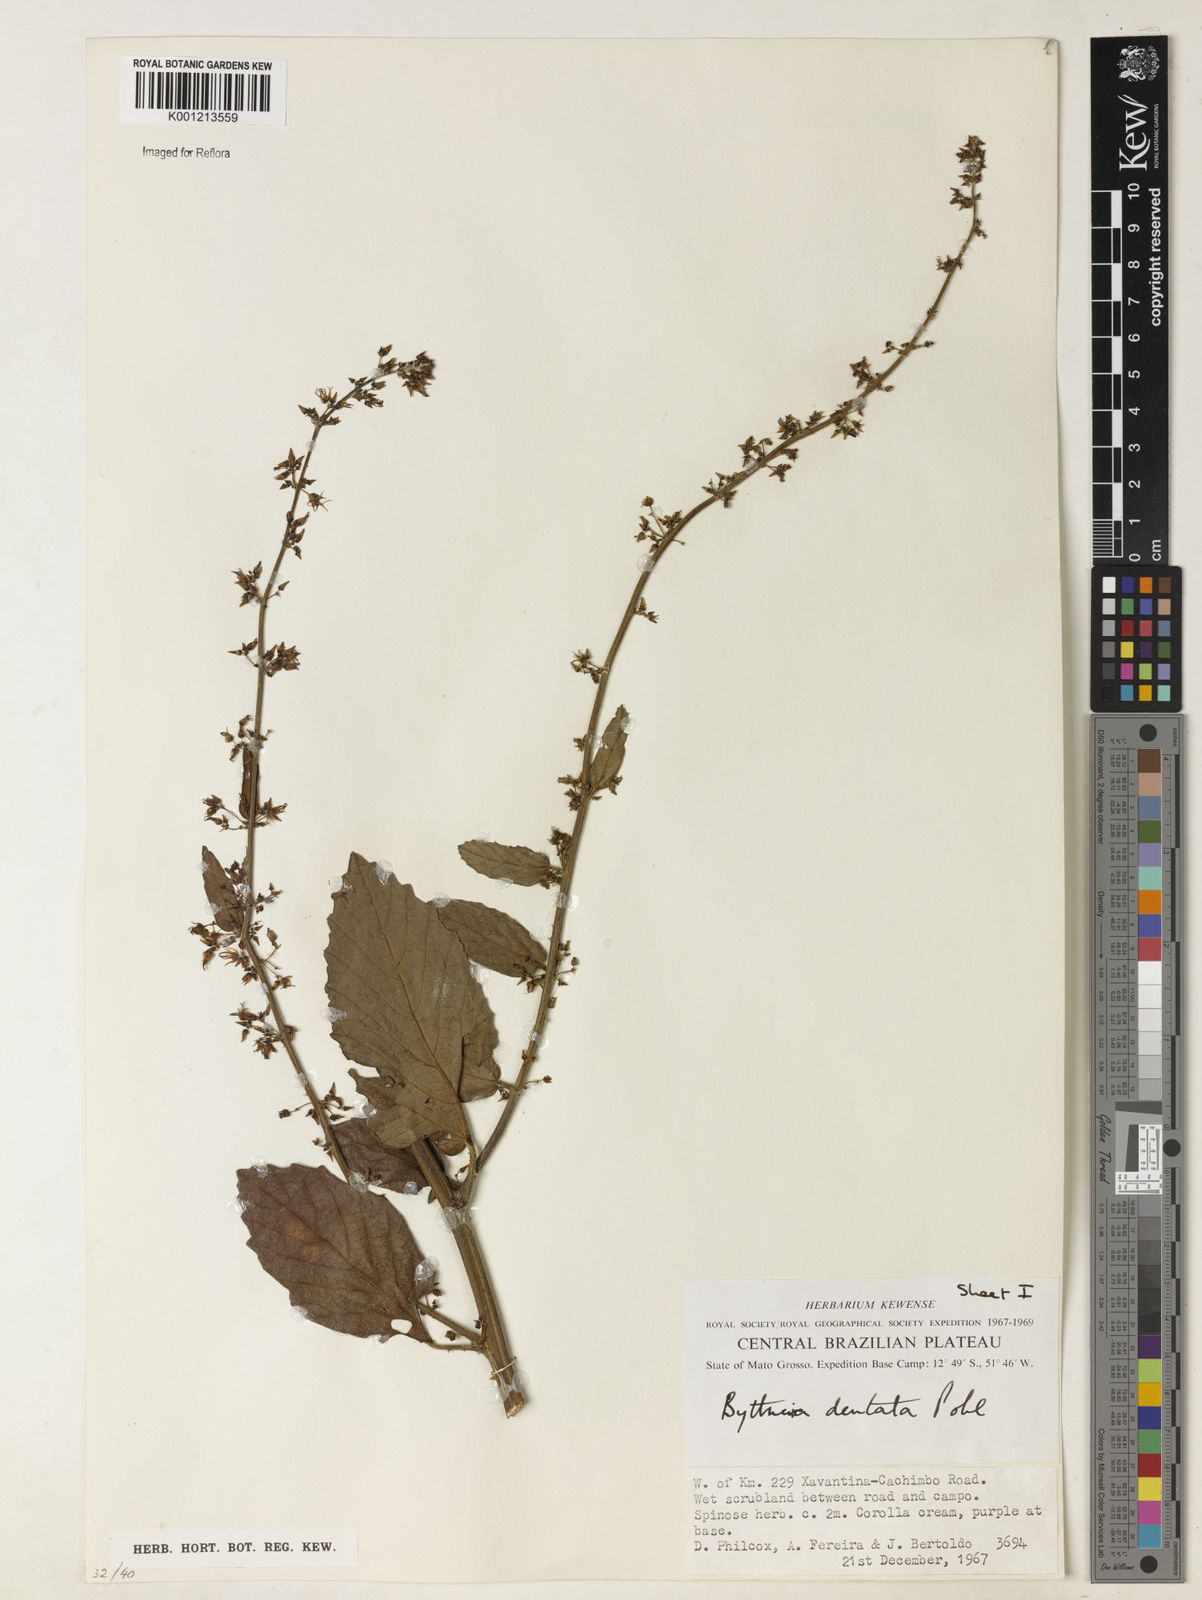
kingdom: Plantae
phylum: Tracheophyta
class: Magnoliopsida
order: Malvales
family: Malvaceae
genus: Byttneria
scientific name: Byttneria
